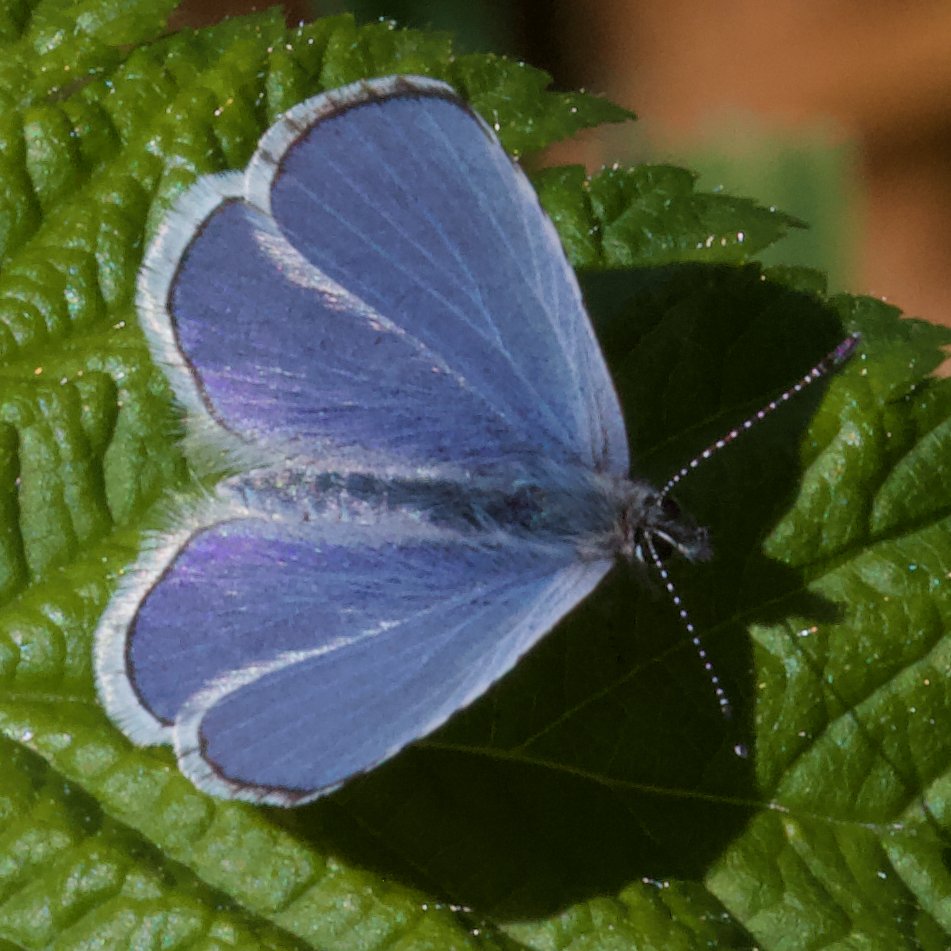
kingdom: Animalia
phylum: Arthropoda
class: Insecta
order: Lepidoptera
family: Lycaenidae
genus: Celastrina
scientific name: Celastrina ladon
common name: Echo Azure
